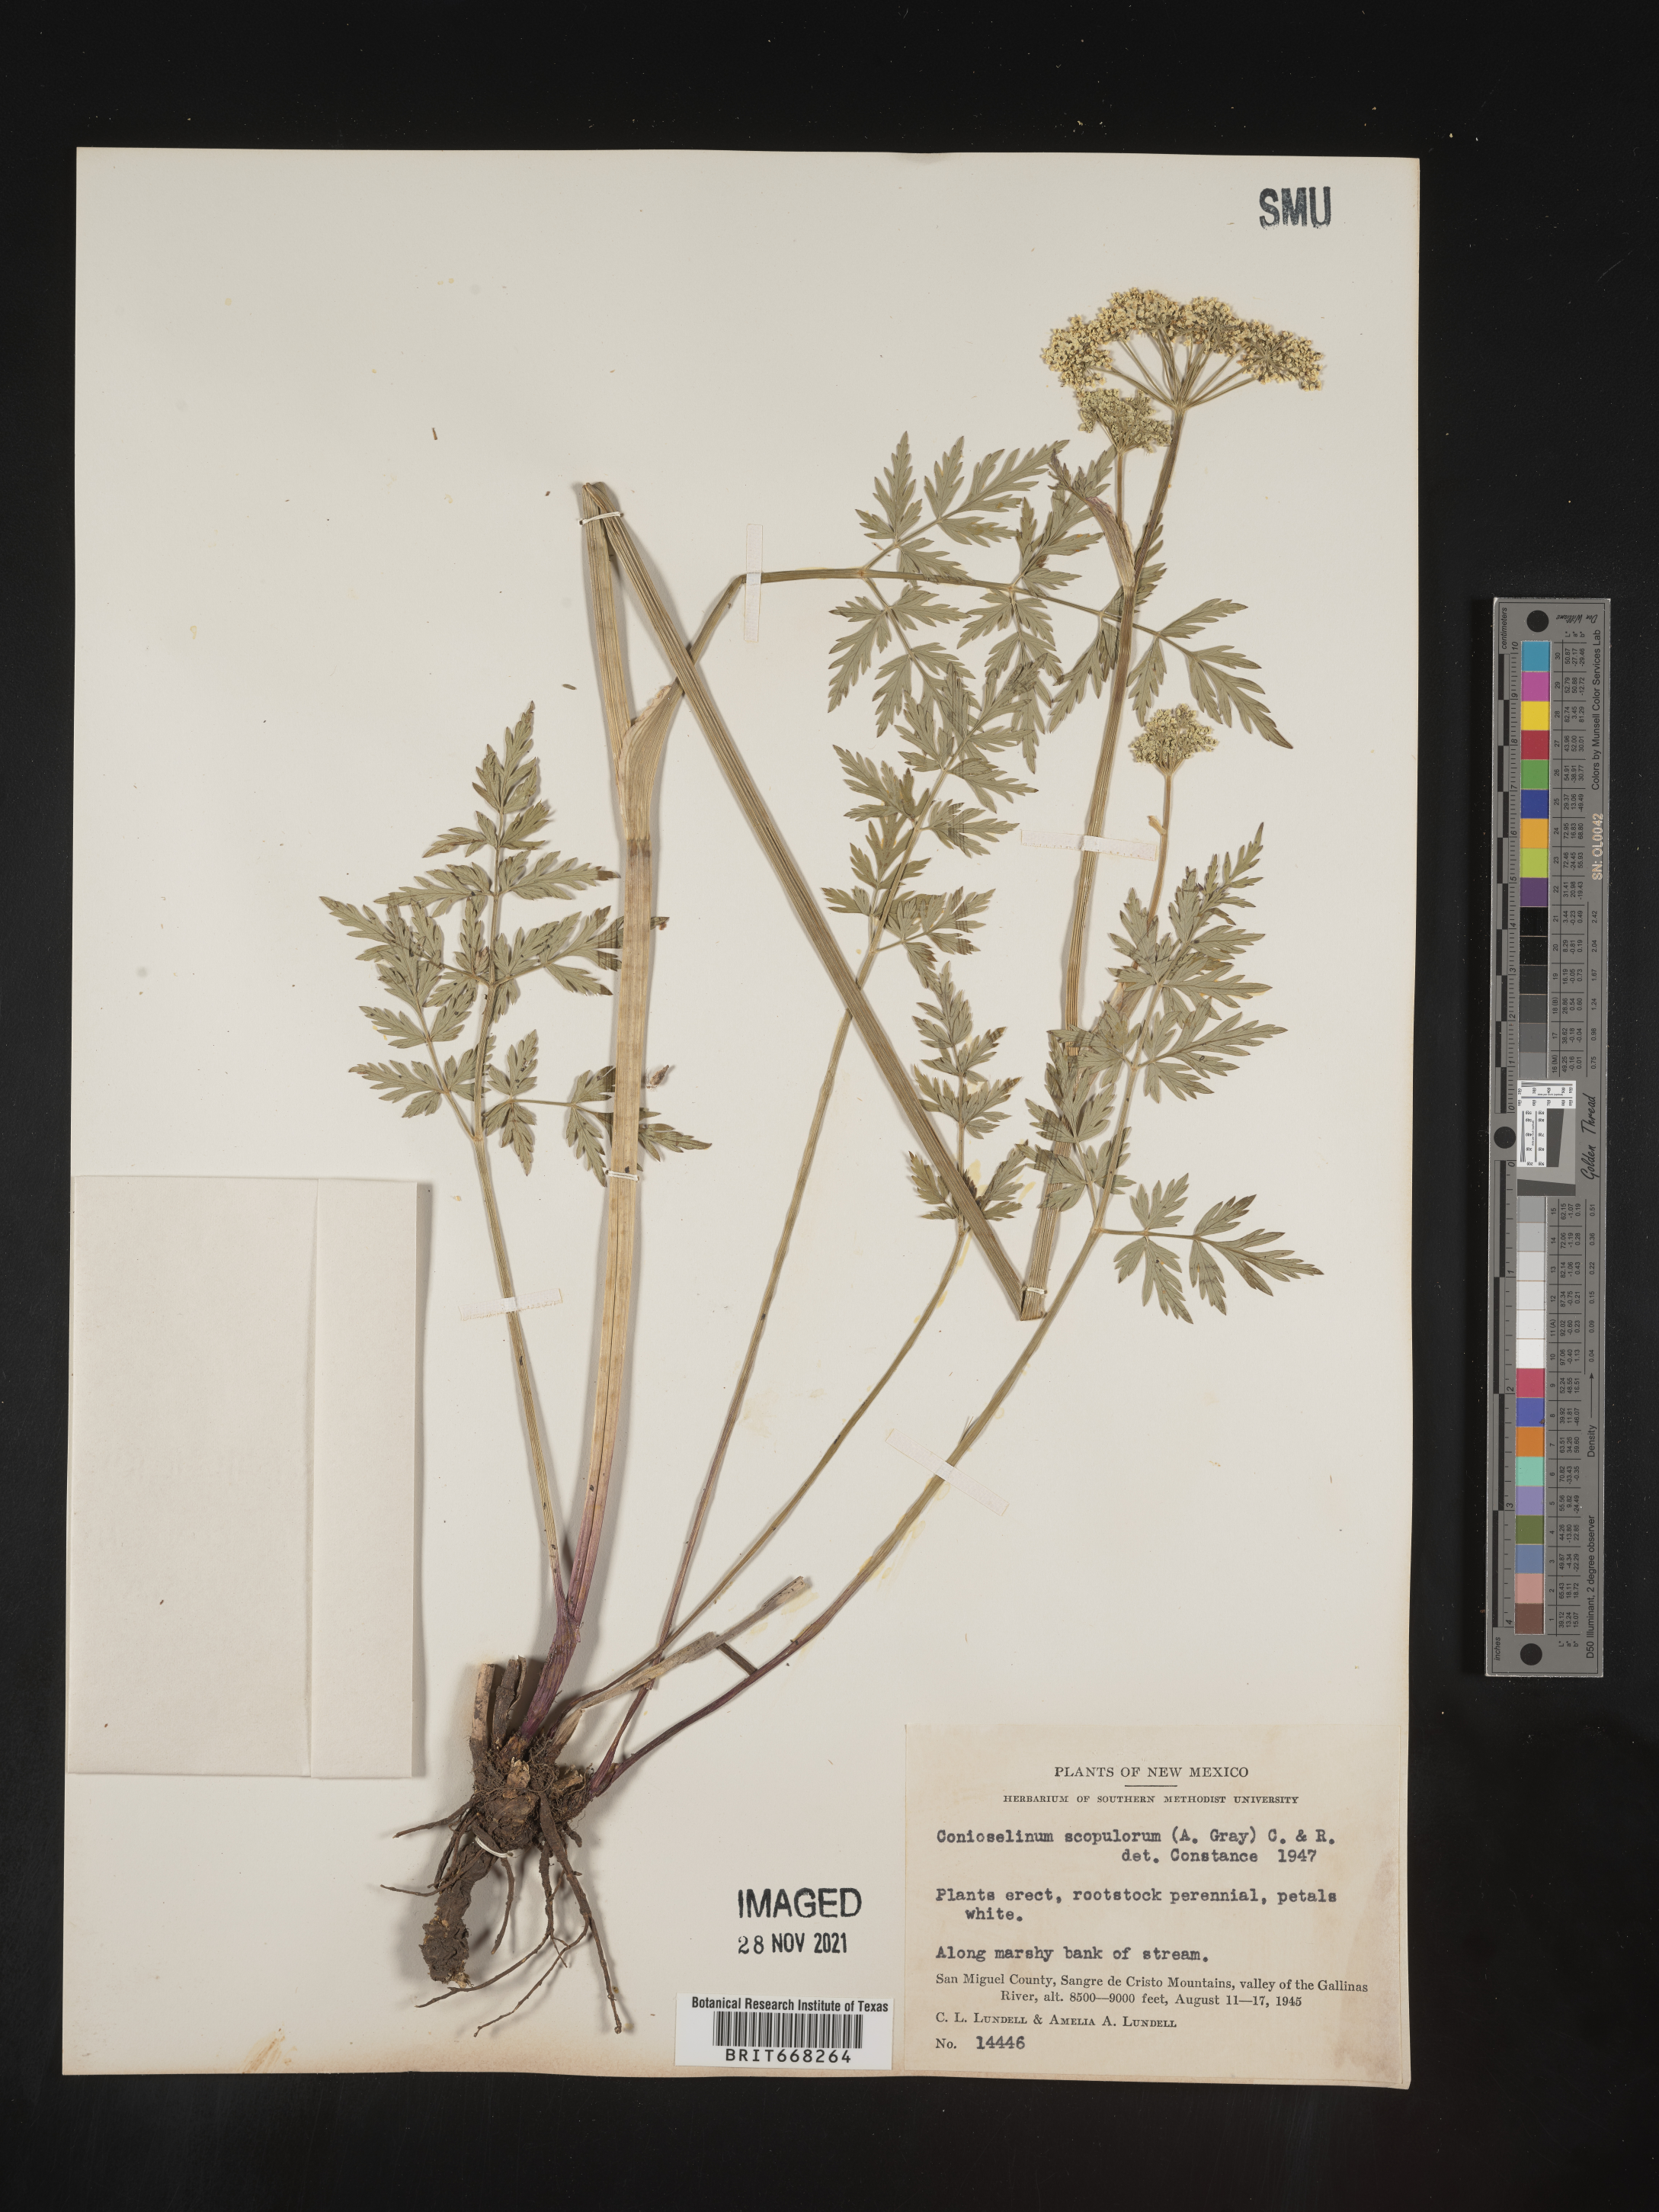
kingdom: Plantae
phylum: Tracheophyta
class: Magnoliopsida
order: Apiales
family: Apiaceae
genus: Conioselinum
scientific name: Conioselinum
